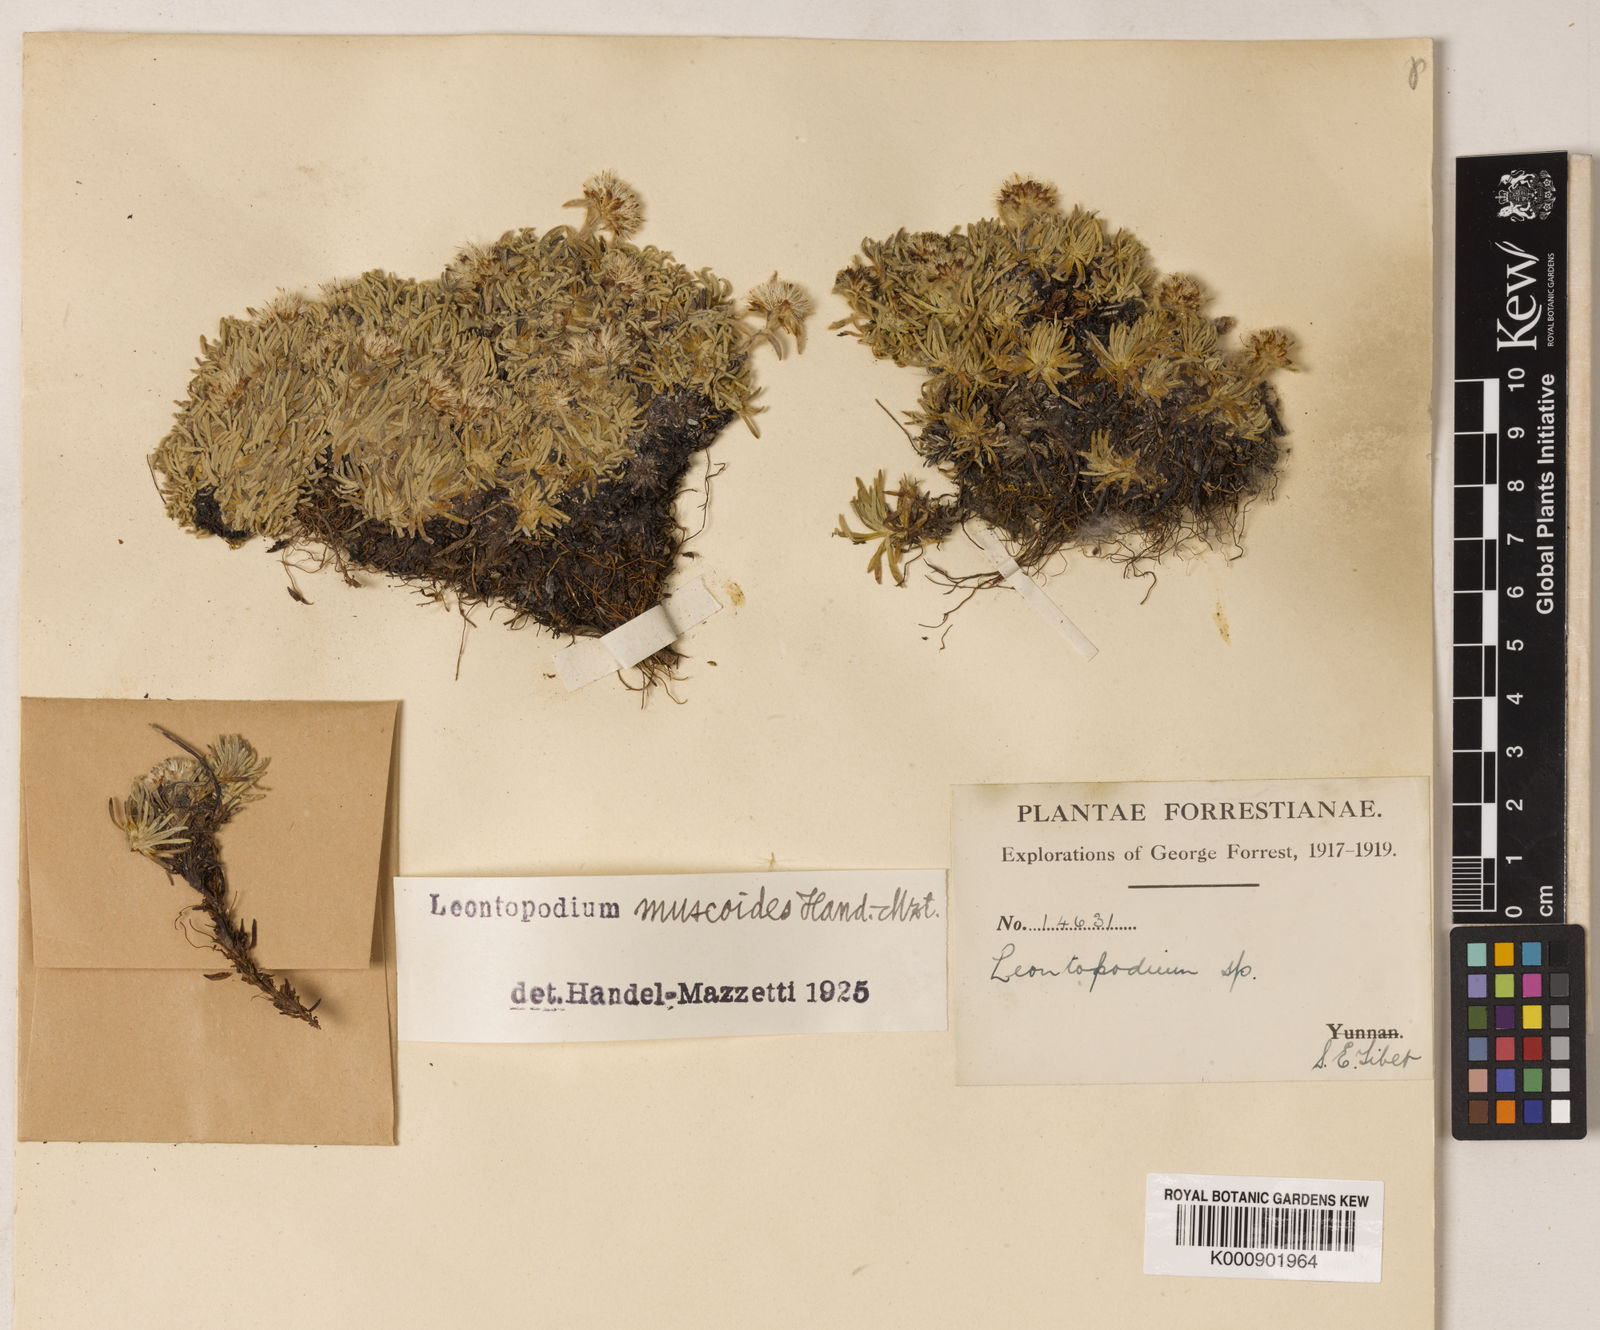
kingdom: Plantae
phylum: Tracheophyta
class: Magnoliopsida
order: Asterales
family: Asteraceae
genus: Leontopodium
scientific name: Leontopodium muscoides
